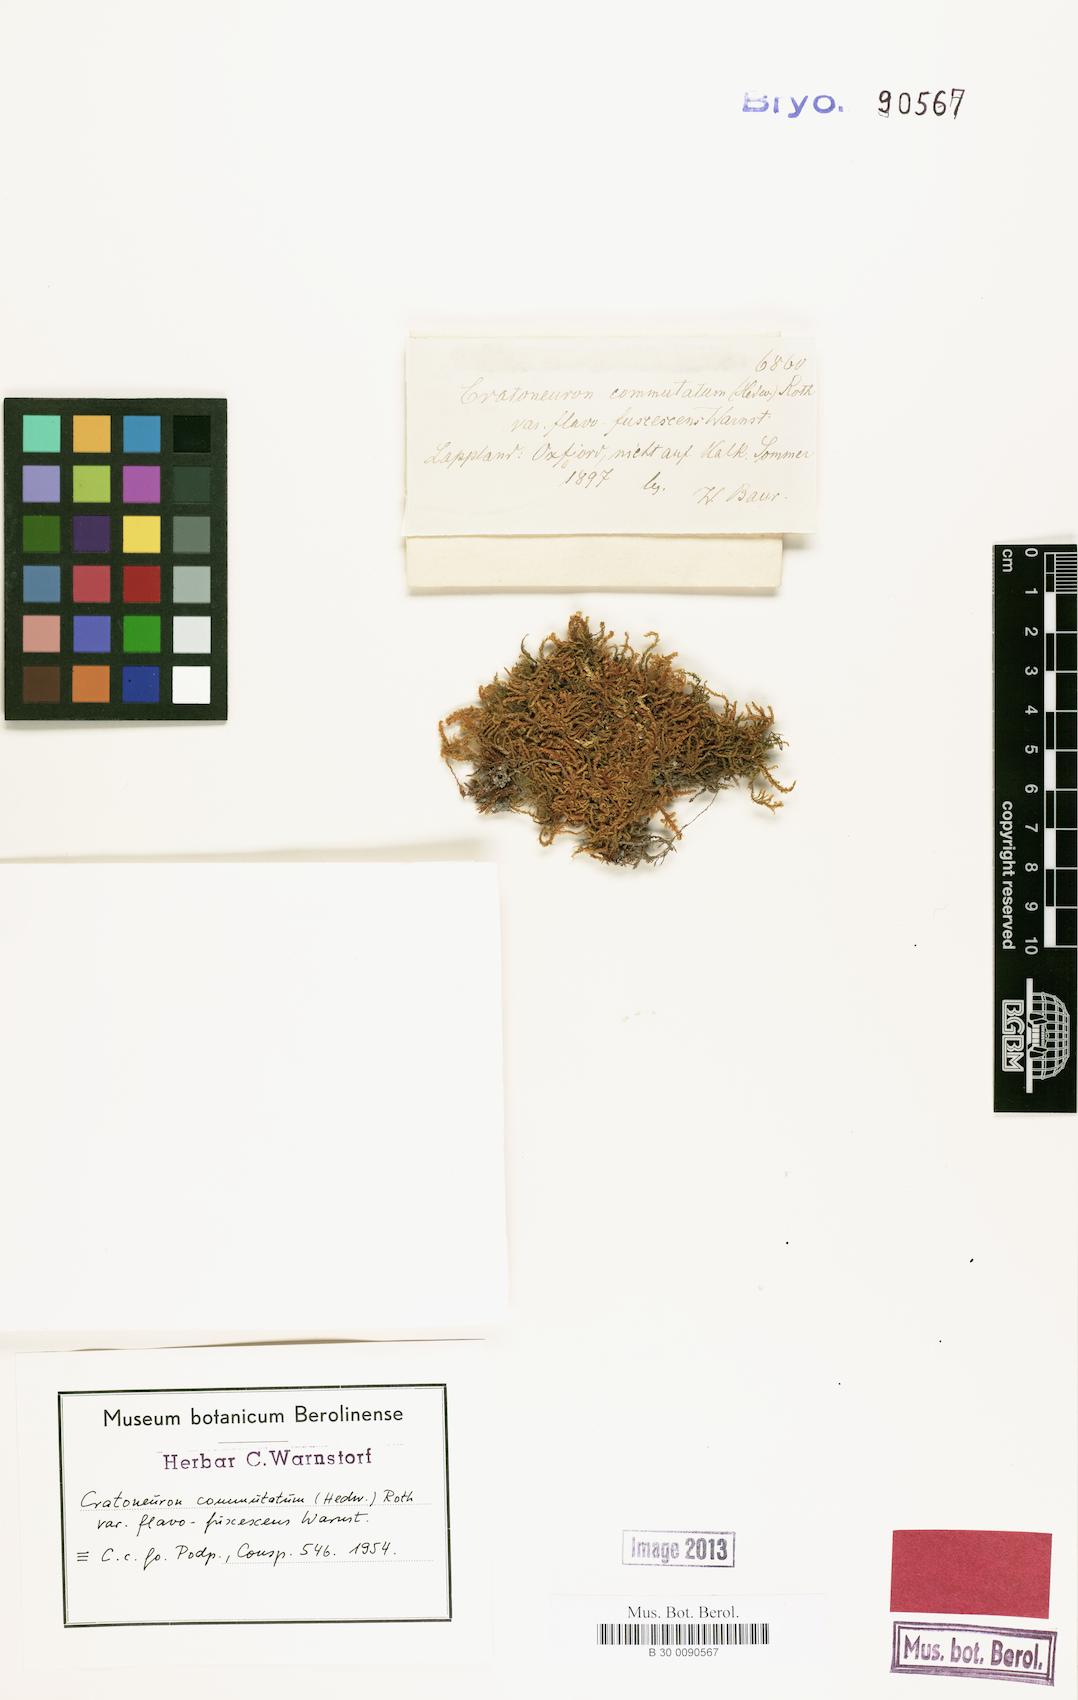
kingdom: Plantae
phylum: Bryophyta
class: Bryopsida
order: Hypnales
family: Amblystegiaceae
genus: Palustriella
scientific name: Palustriella commutata
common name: Curled hook-moss
